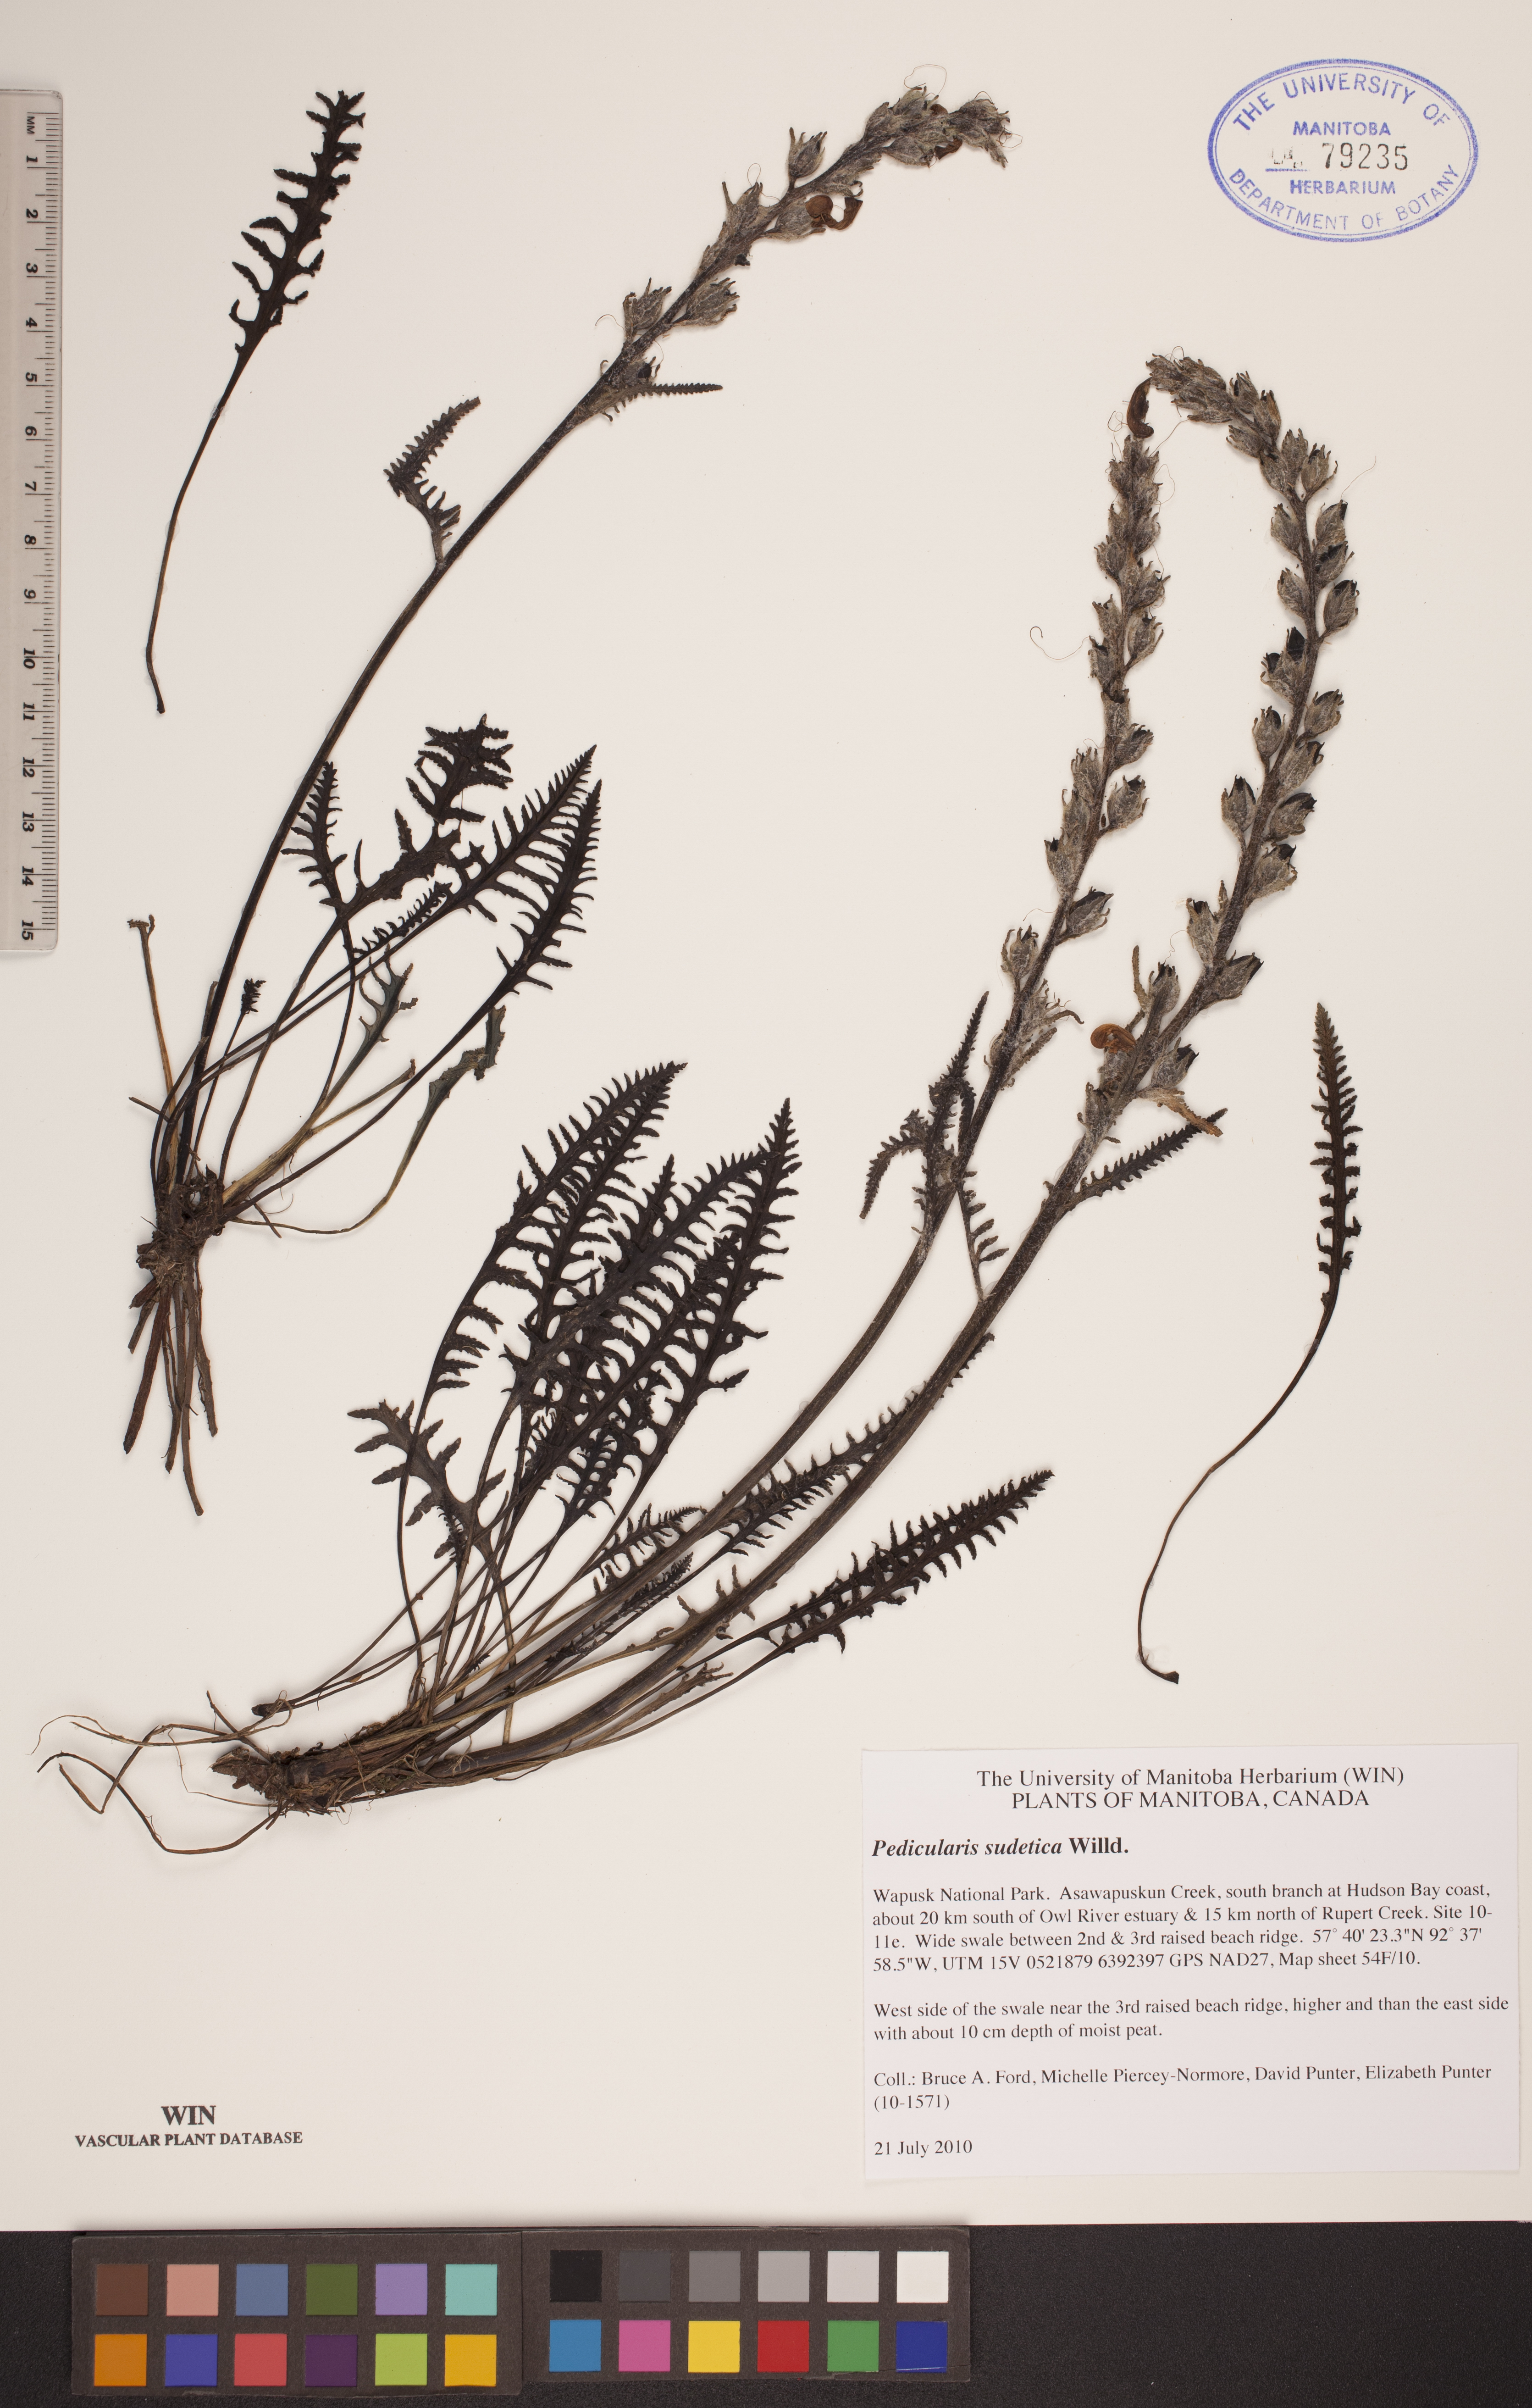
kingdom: Plantae
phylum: Tracheophyta
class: Magnoliopsida
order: Lamiales
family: Orobanchaceae
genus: Pedicularis
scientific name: Pedicularis sudetica
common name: Sudeten lousewort
